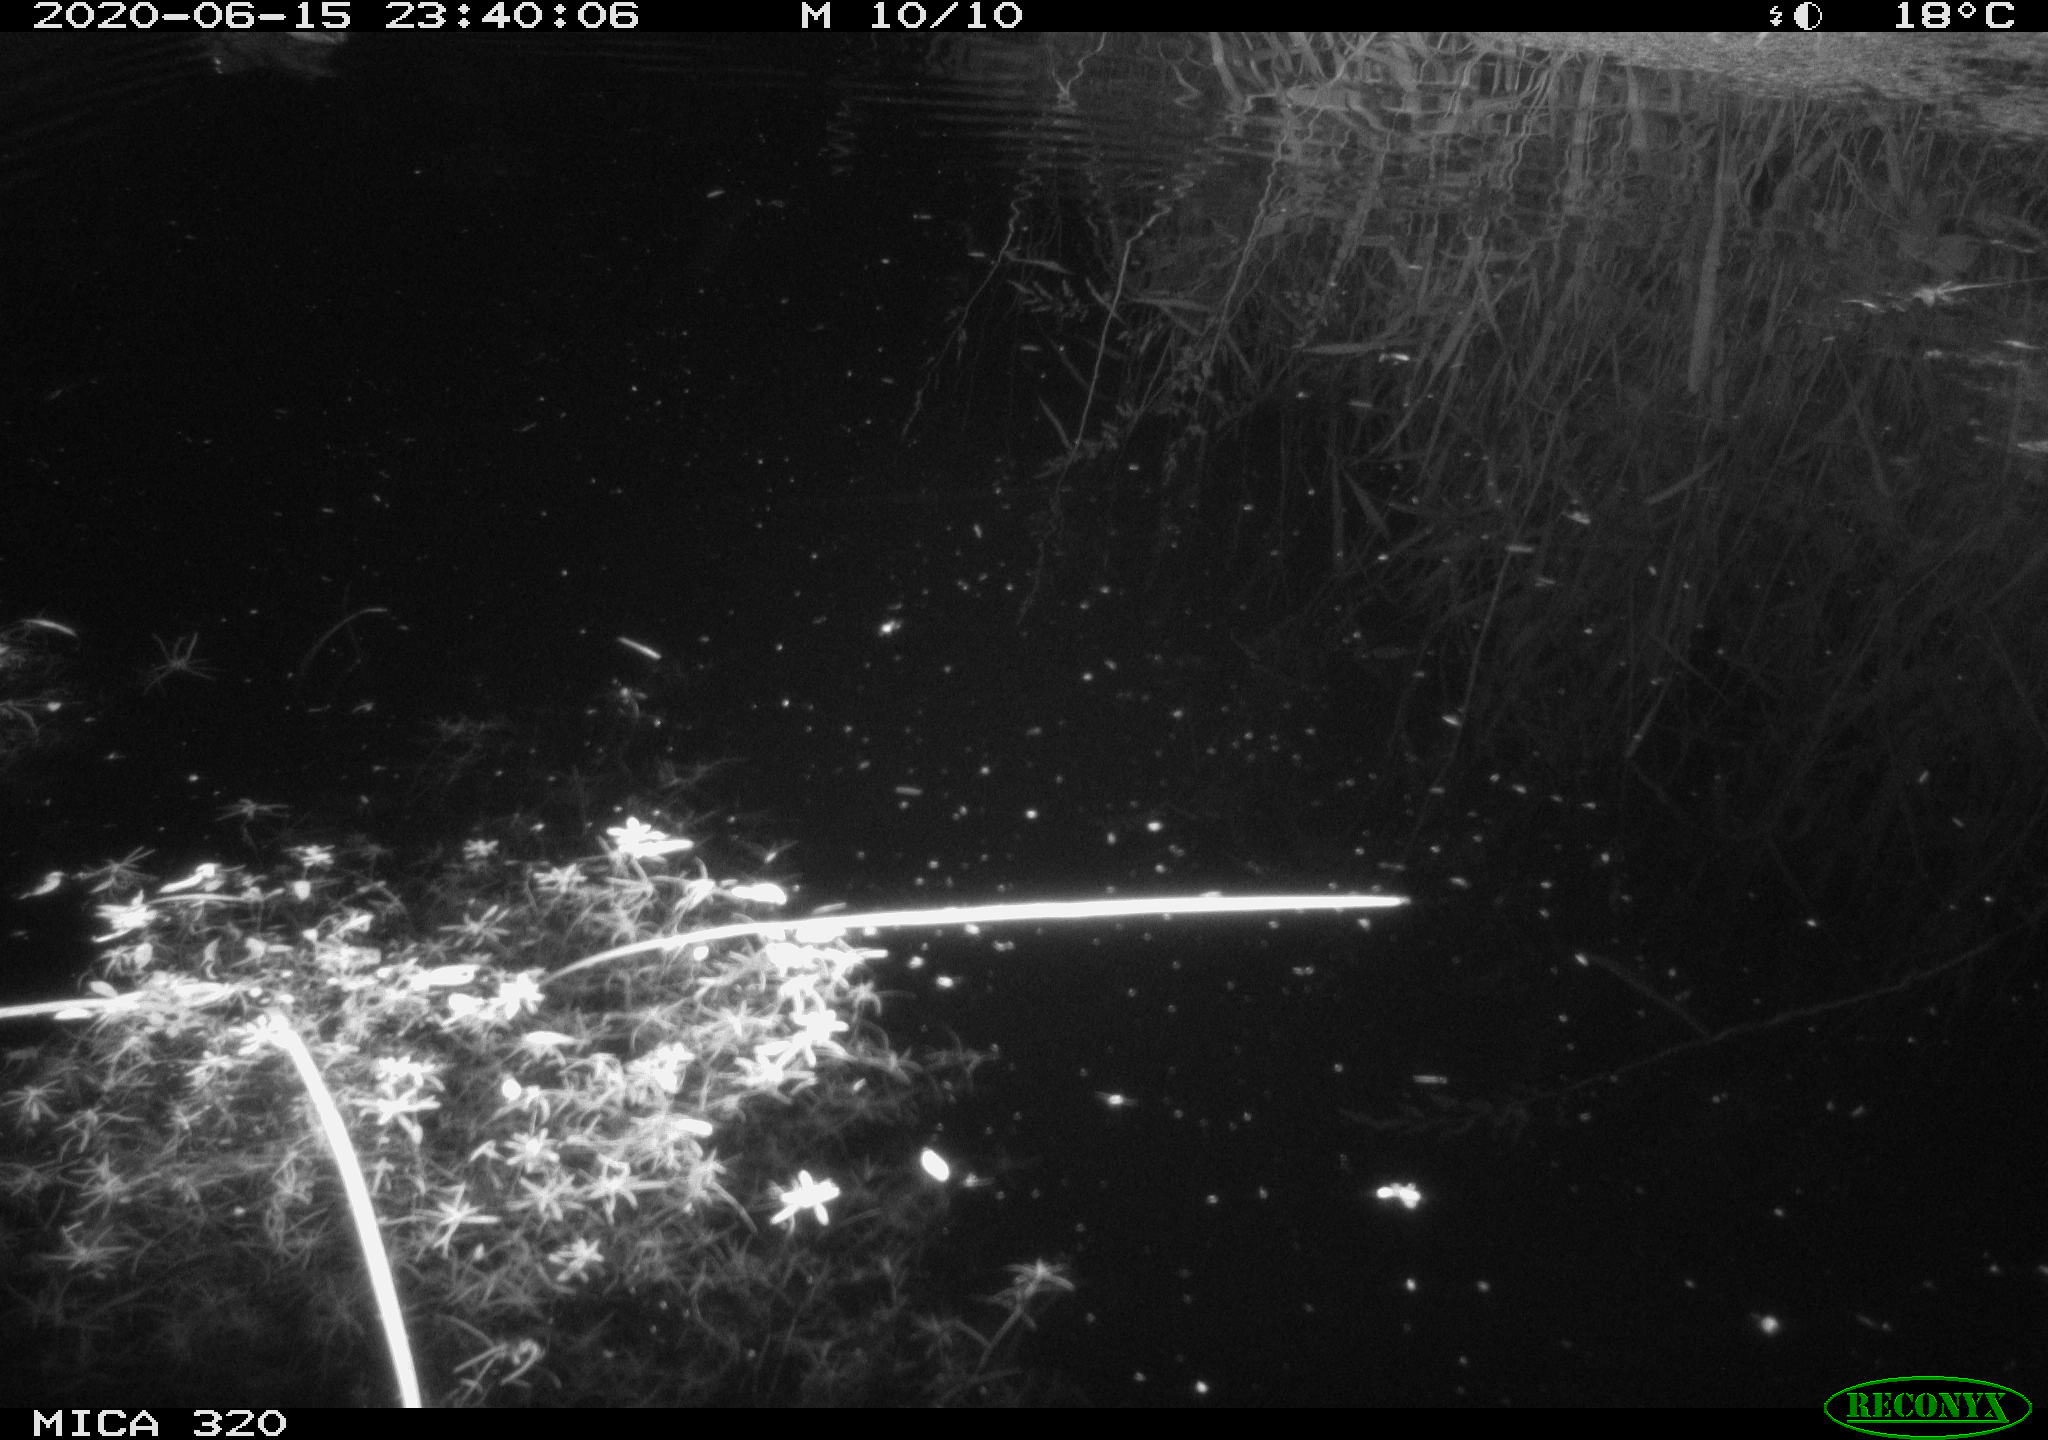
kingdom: Animalia
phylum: Chordata
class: Aves
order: Anseriformes
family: Anatidae
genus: Anas
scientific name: Anas platyrhynchos
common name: Mallard
